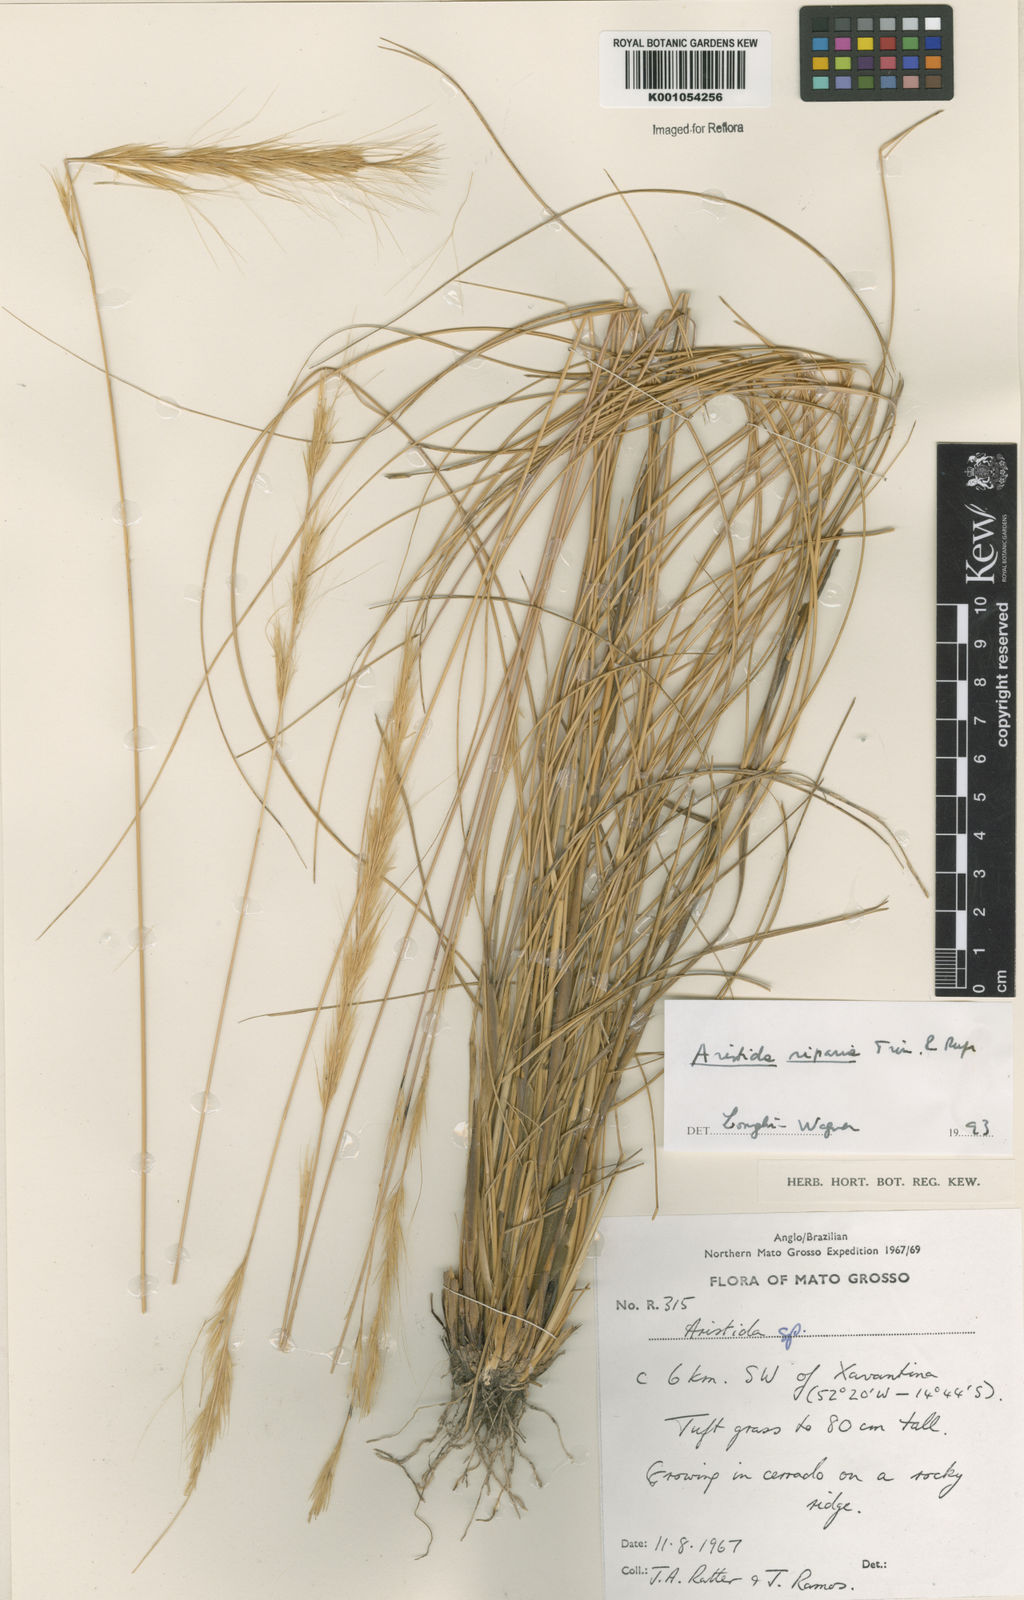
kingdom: Plantae
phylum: Tracheophyta
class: Liliopsida
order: Poales
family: Poaceae
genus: Aristida
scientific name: Aristida riparia
